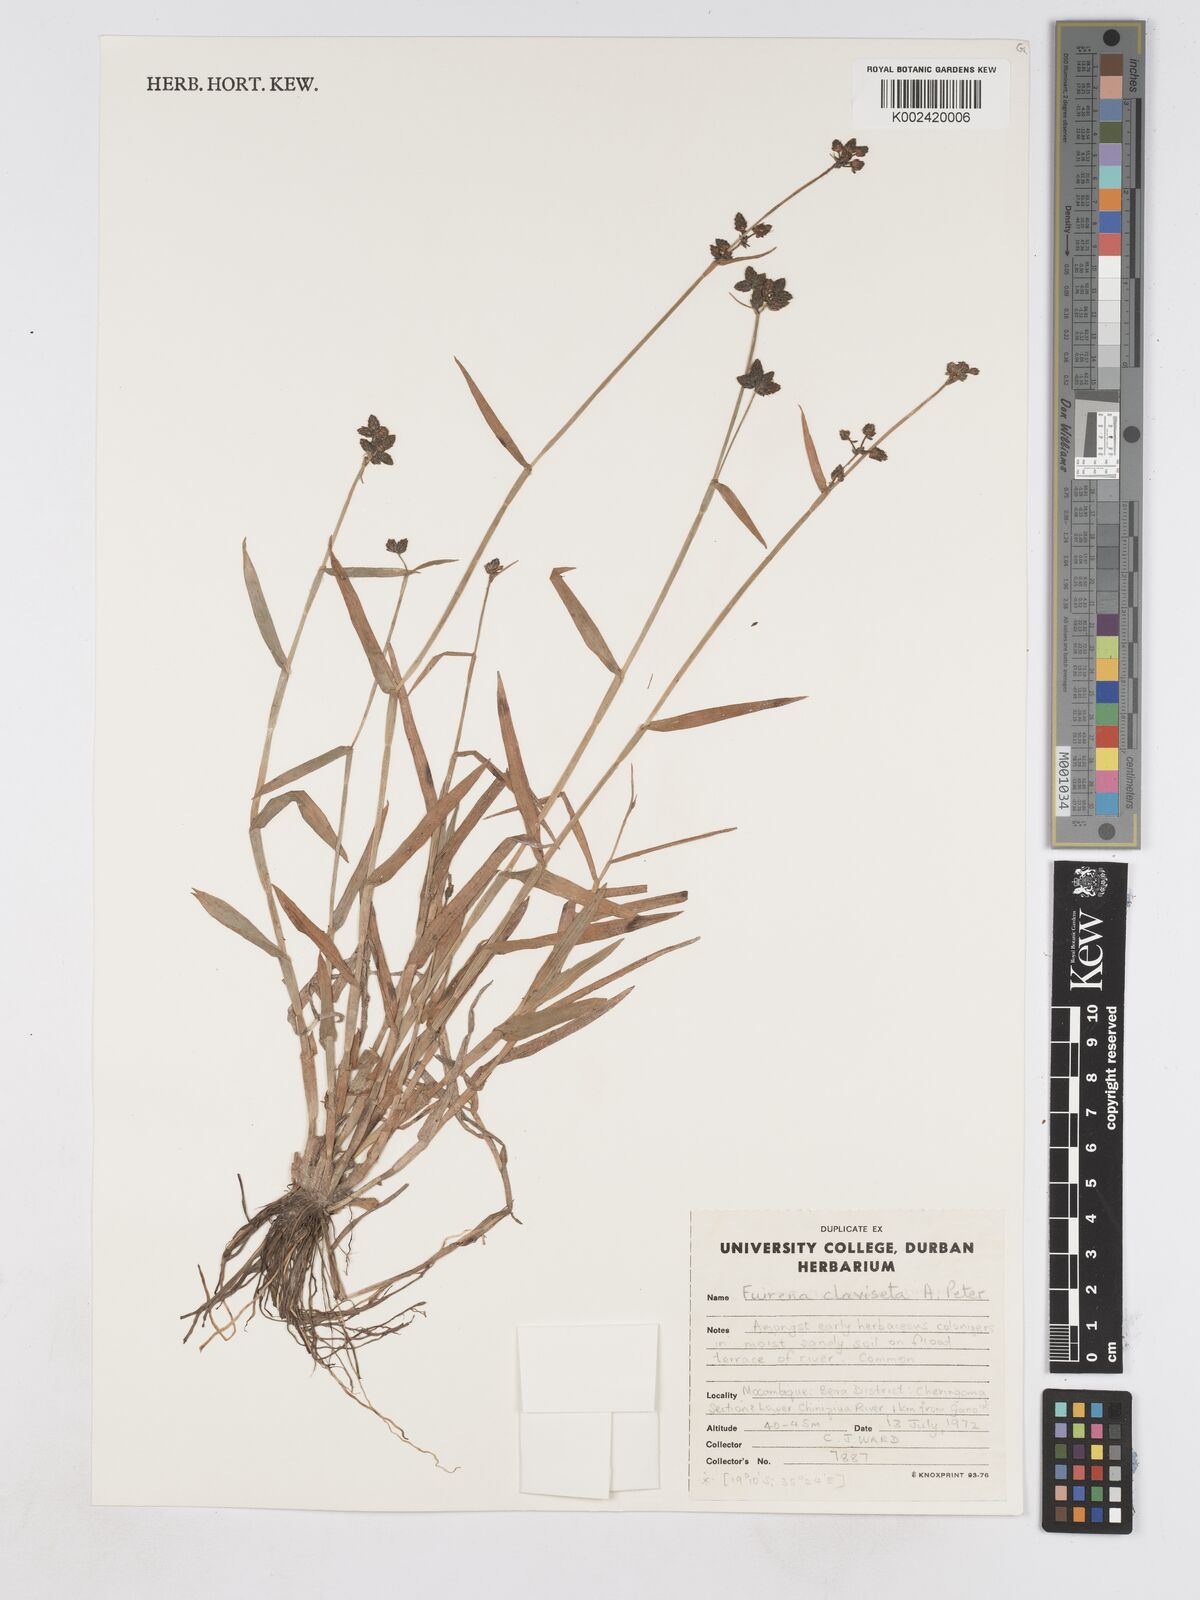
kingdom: Plantae
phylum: Tracheophyta
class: Liliopsida
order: Poales
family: Cyperaceae
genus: Fuirena
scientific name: Fuirena claviseta
